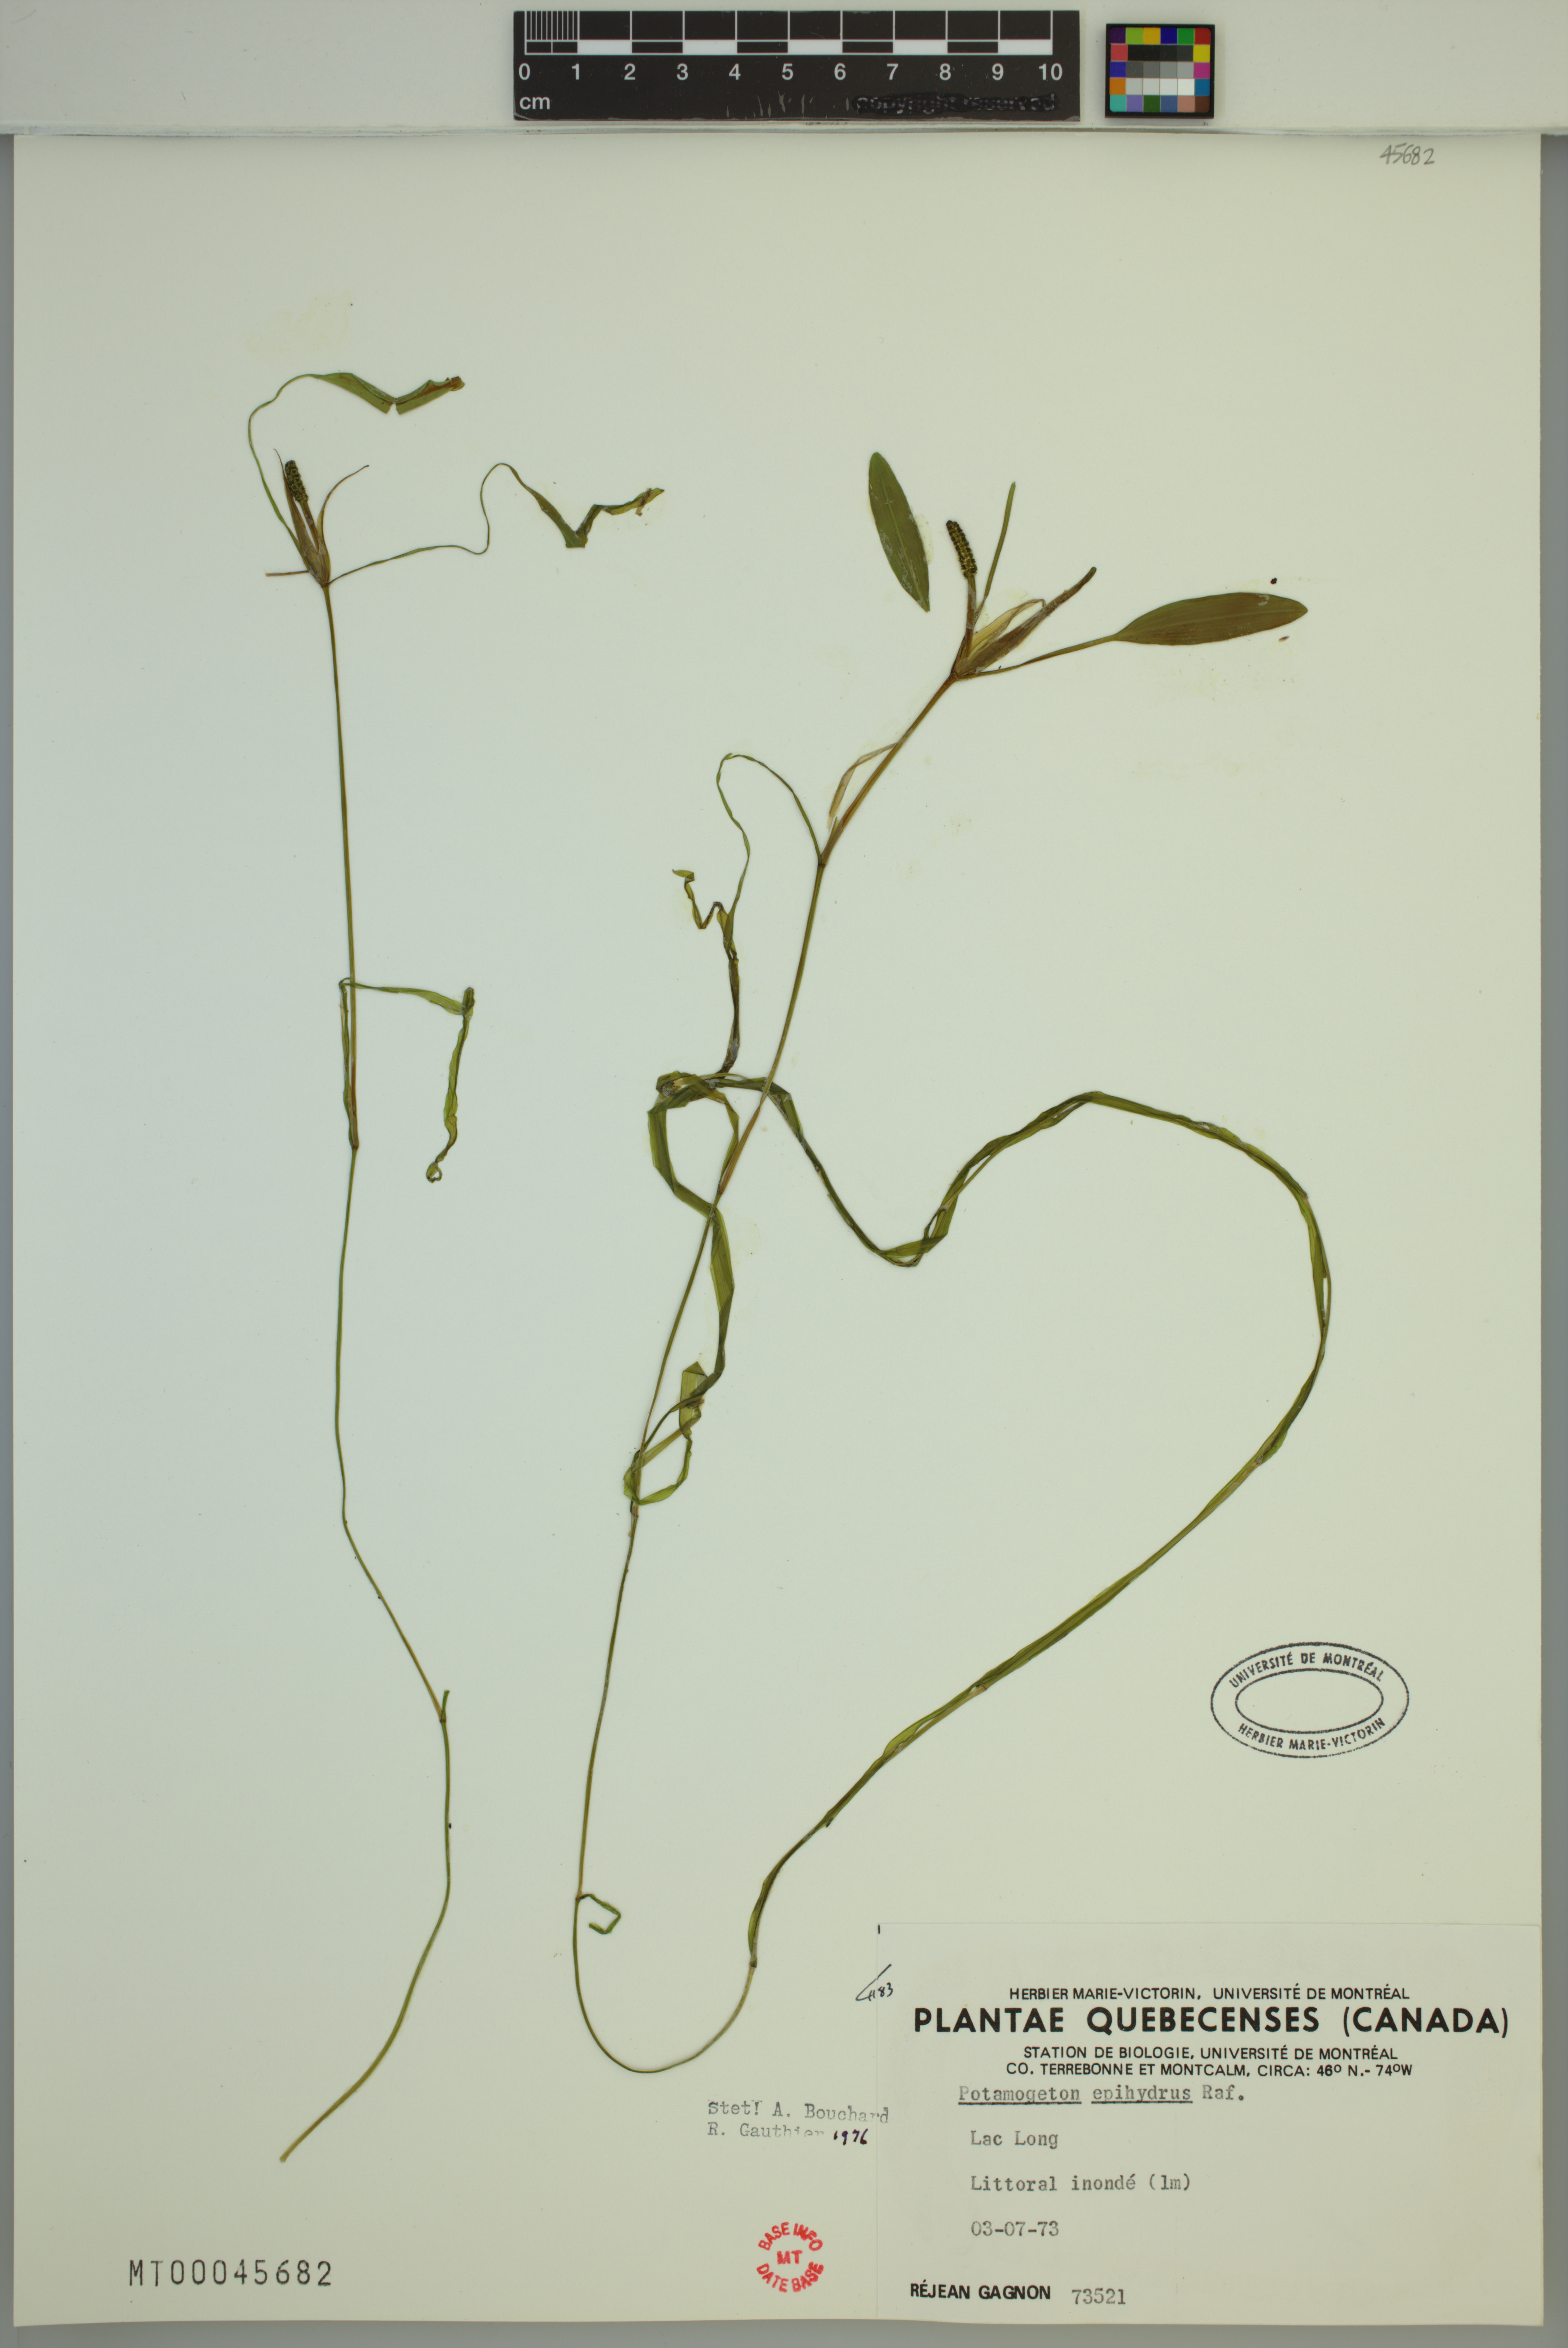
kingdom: Plantae
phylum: Tracheophyta
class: Liliopsida
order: Alismatales
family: Potamogetonaceae
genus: Potamogeton
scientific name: Potamogeton epihydrus
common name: American pondweed
